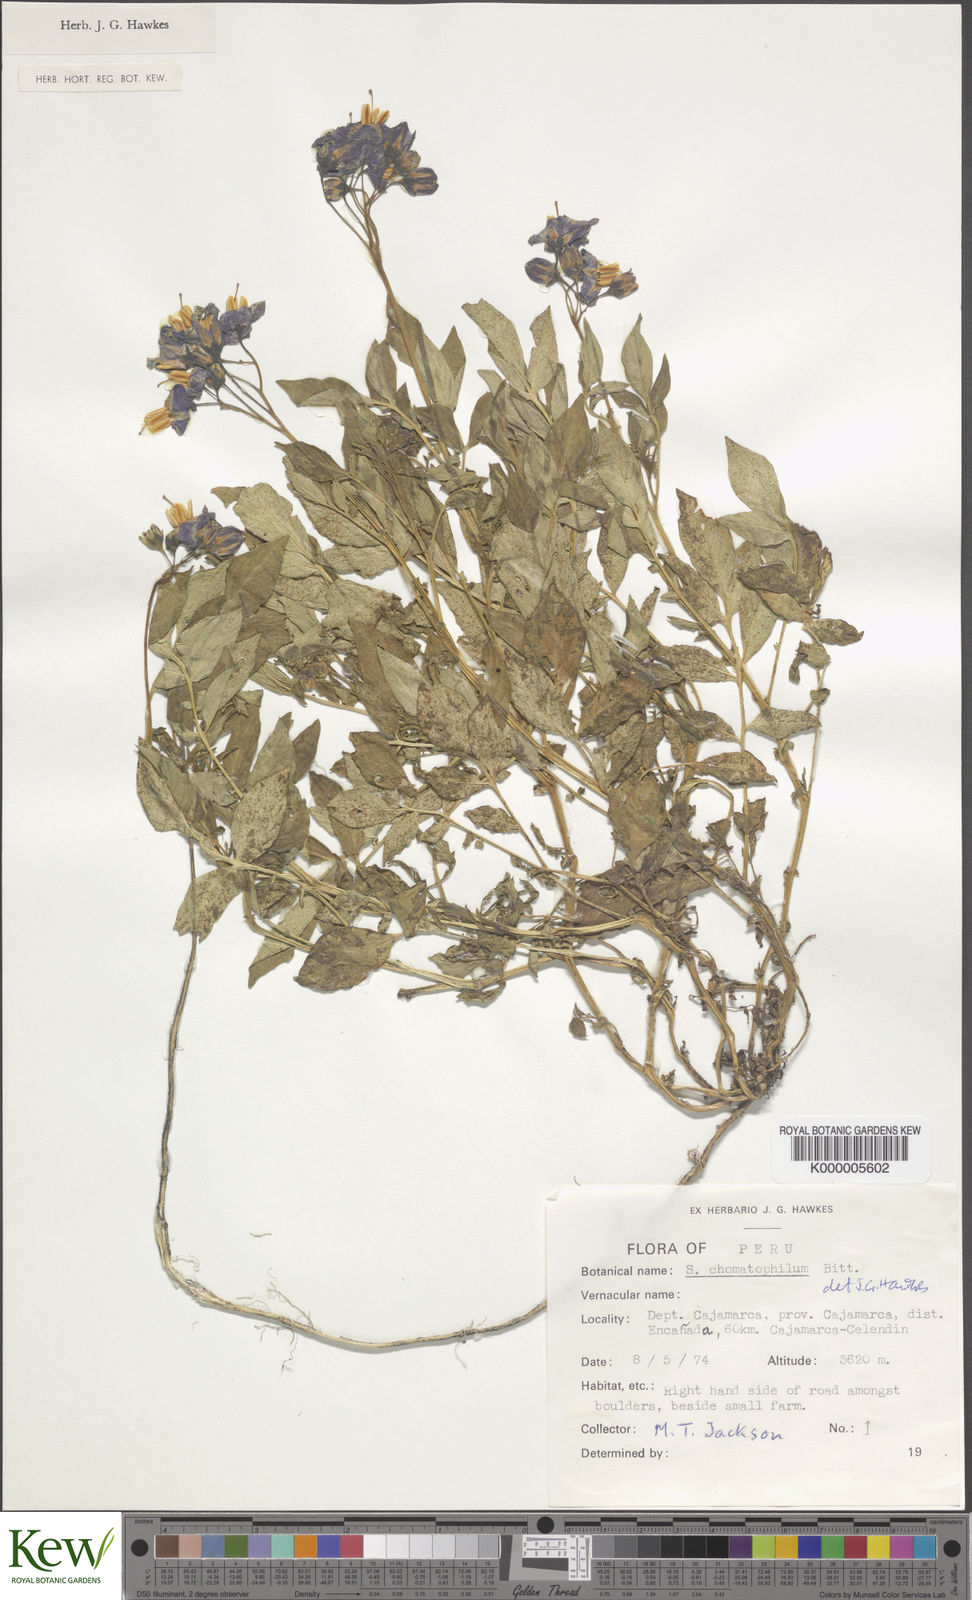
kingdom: Plantae
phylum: Tracheophyta
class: Magnoliopsida
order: Solanales
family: Solanaceae
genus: Solanum
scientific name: Solanum chomatophilum
